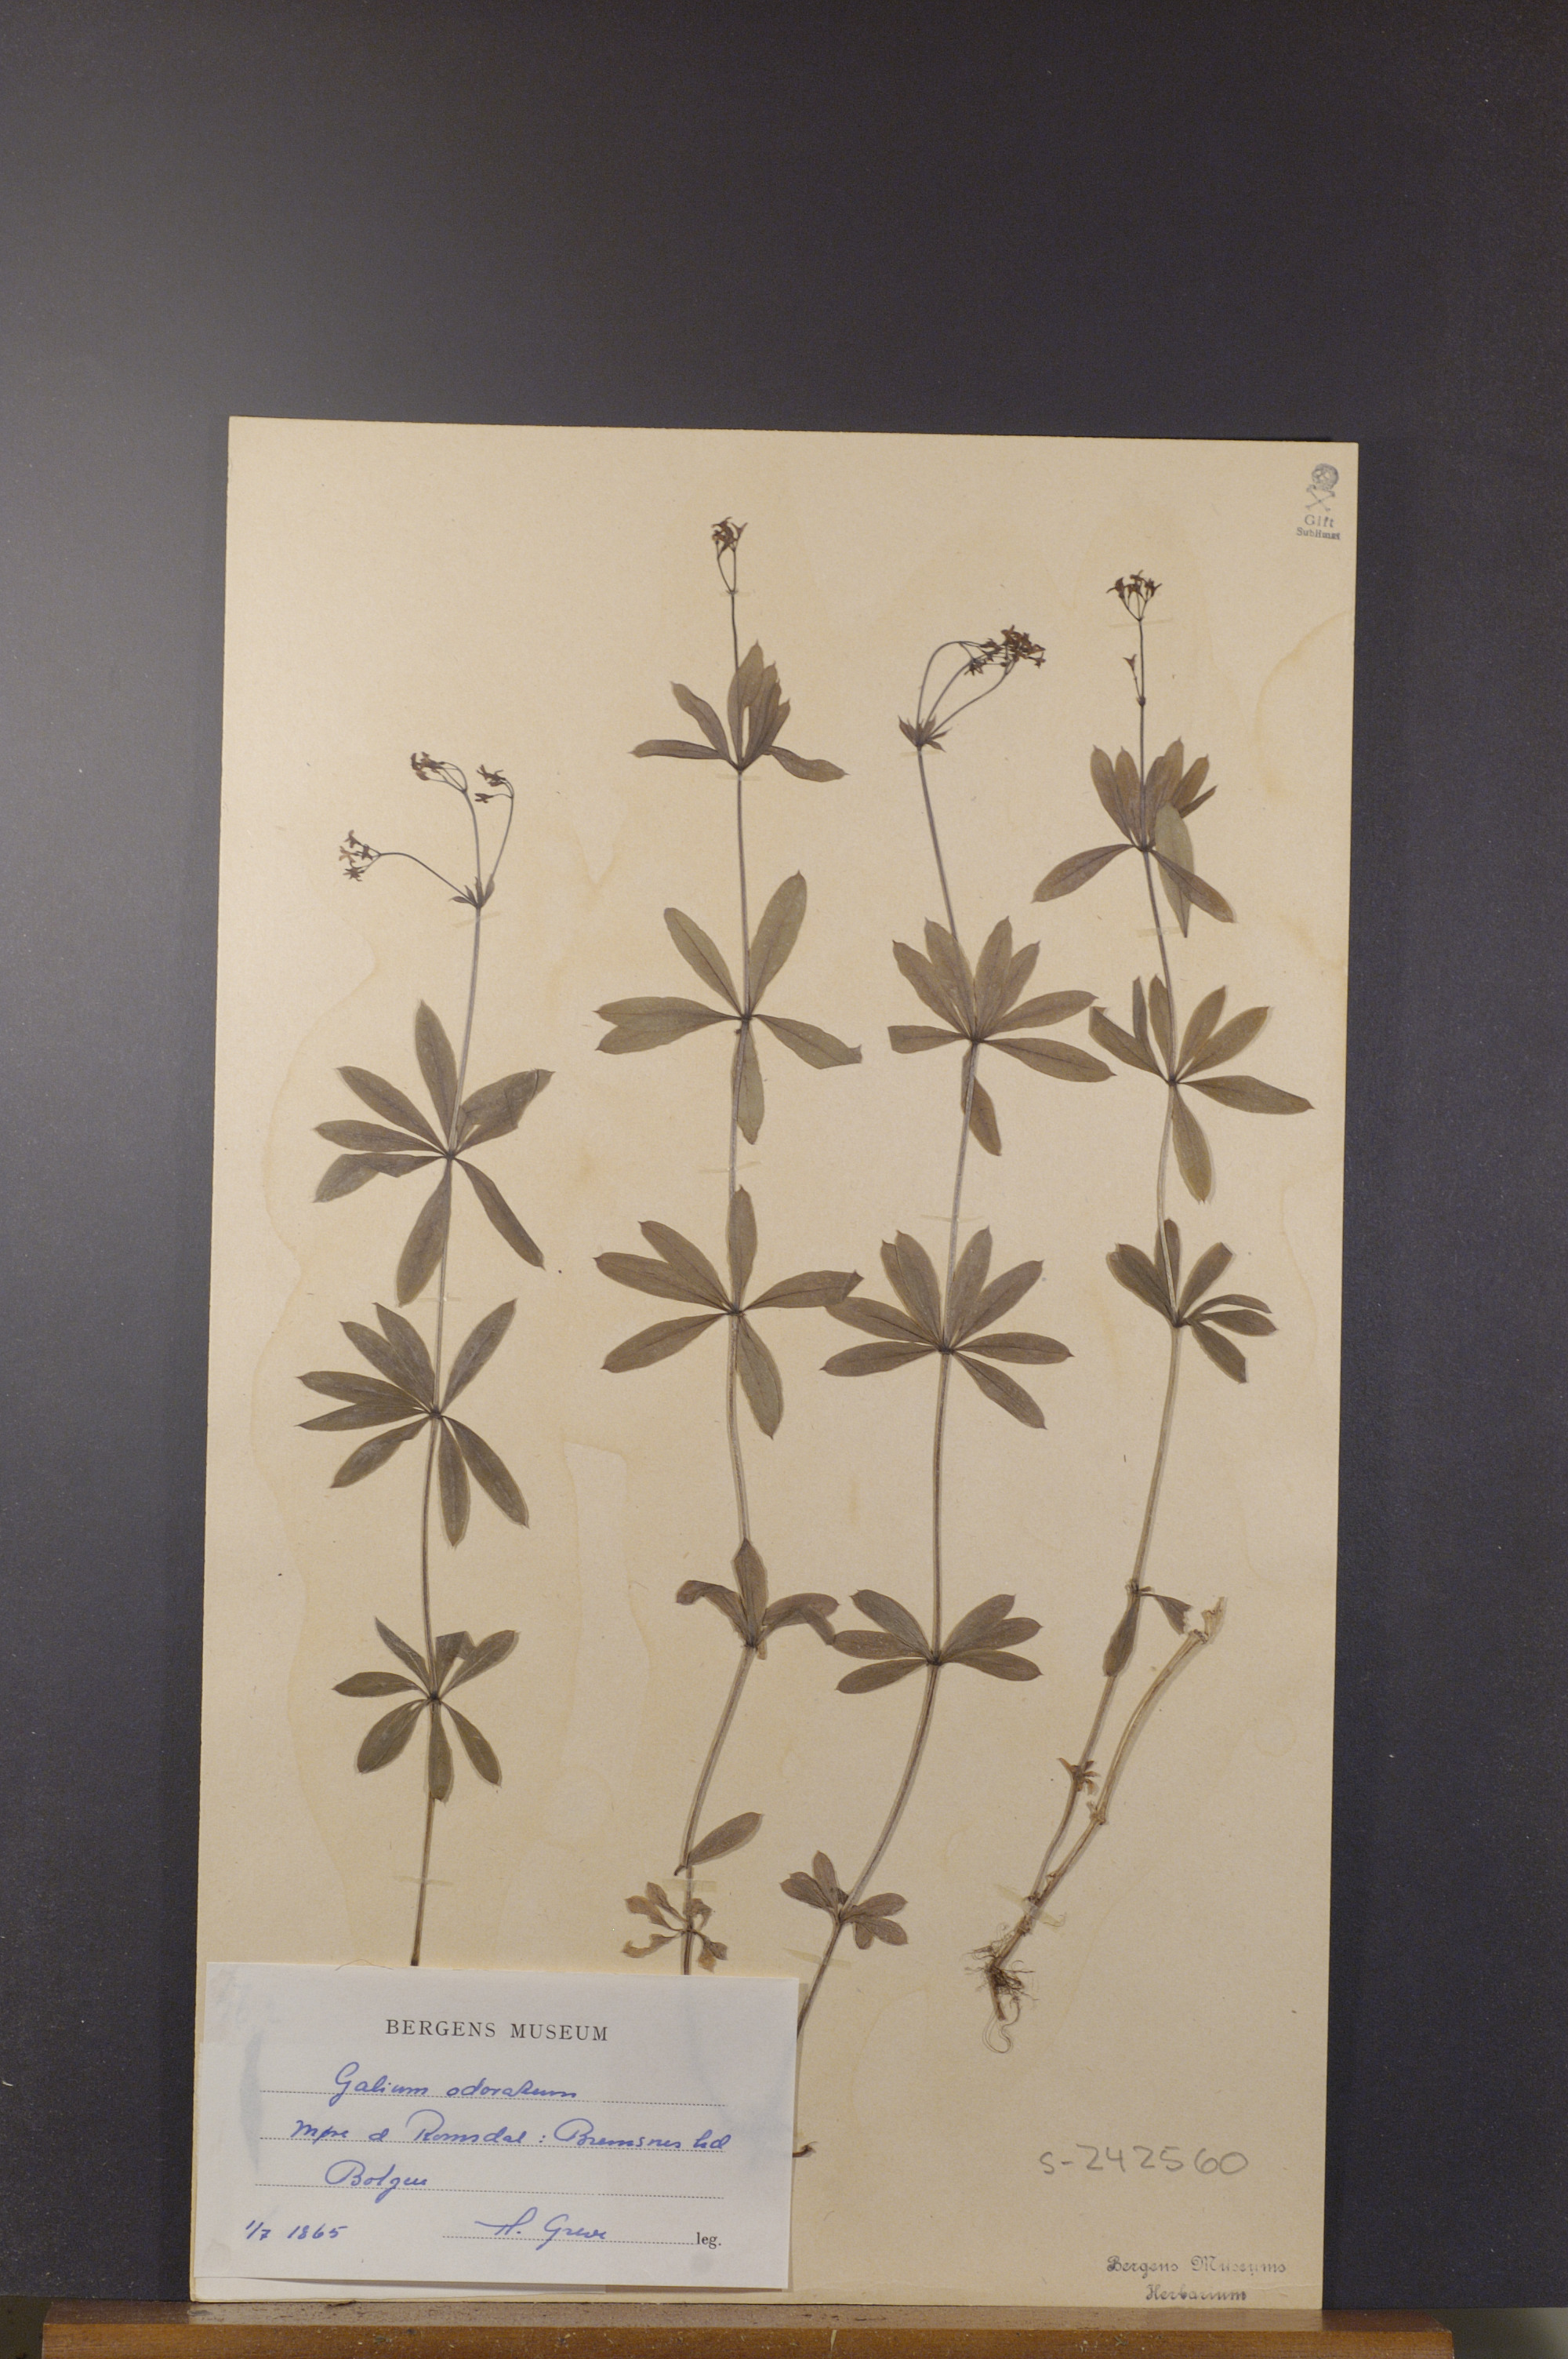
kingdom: Plantae
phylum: Tracheophyta
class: Magnoliopsida
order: Gentianales
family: Rubiaceae
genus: Galium
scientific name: Galium odoratum
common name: Sweet woodruff
